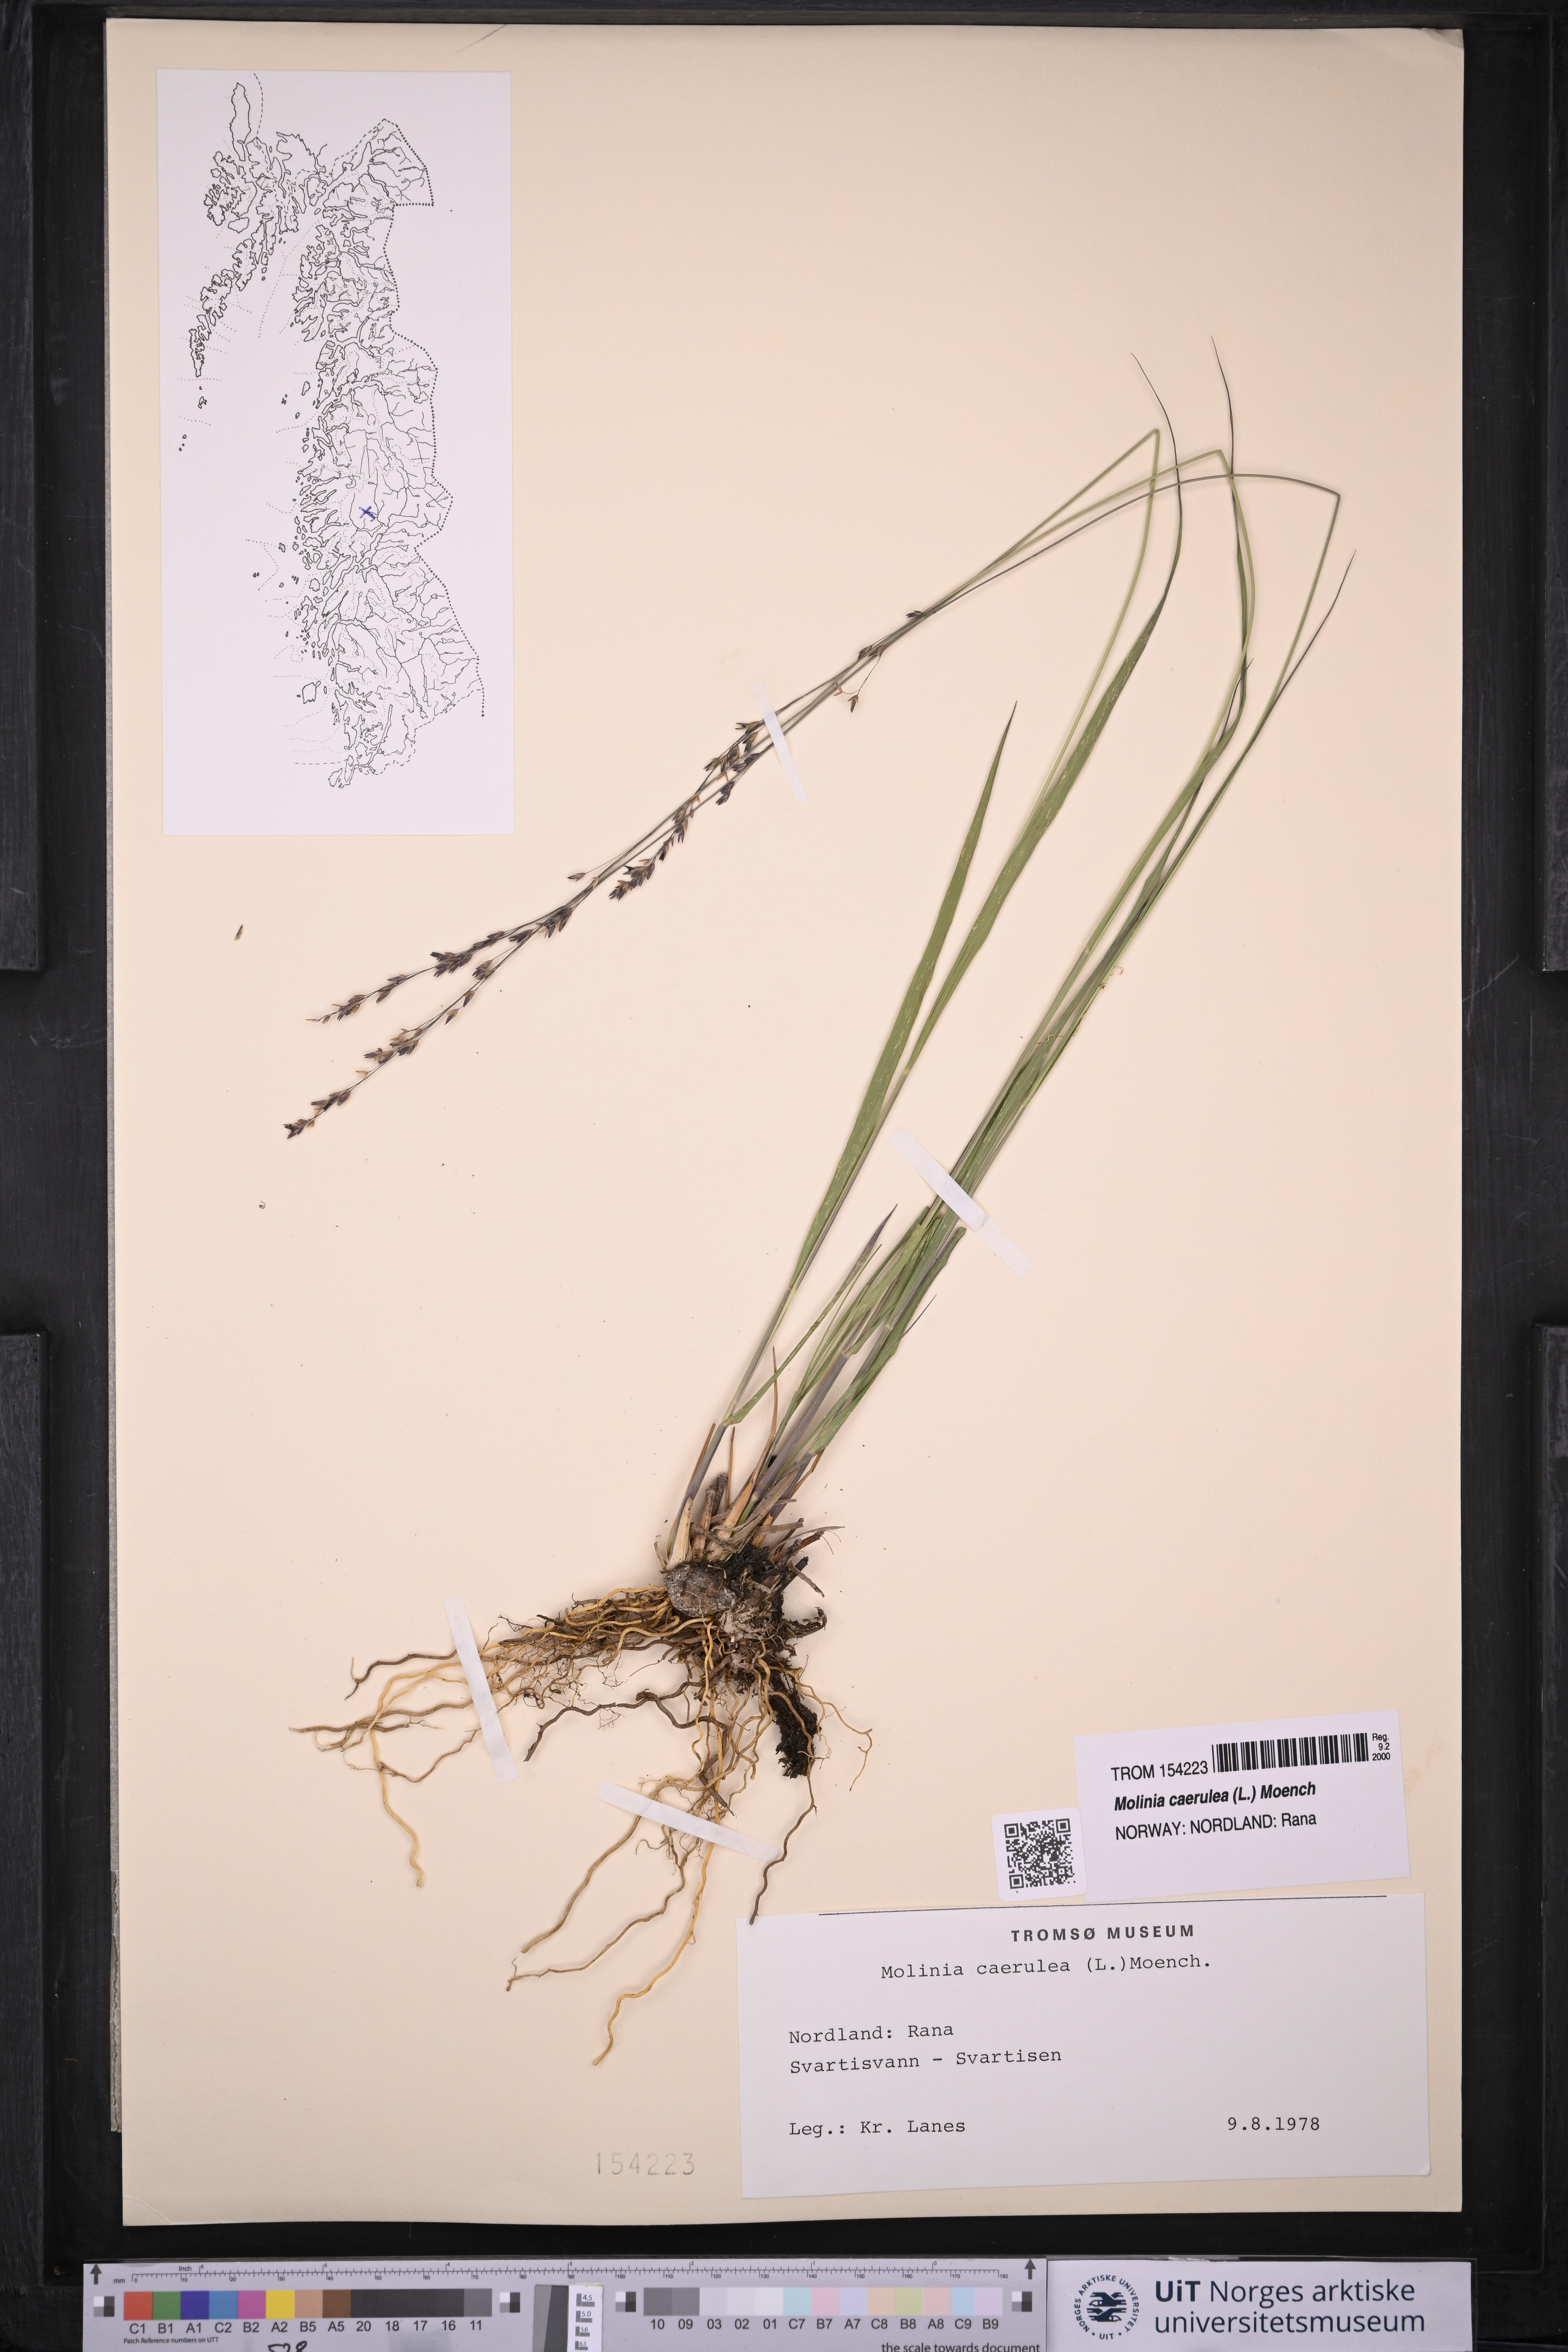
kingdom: Plantae
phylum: Tracheophyta
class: Liliopsida
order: Poales
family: Poaceae
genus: Molinia
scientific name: Molinia caerulea
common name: Purple moor-grass
